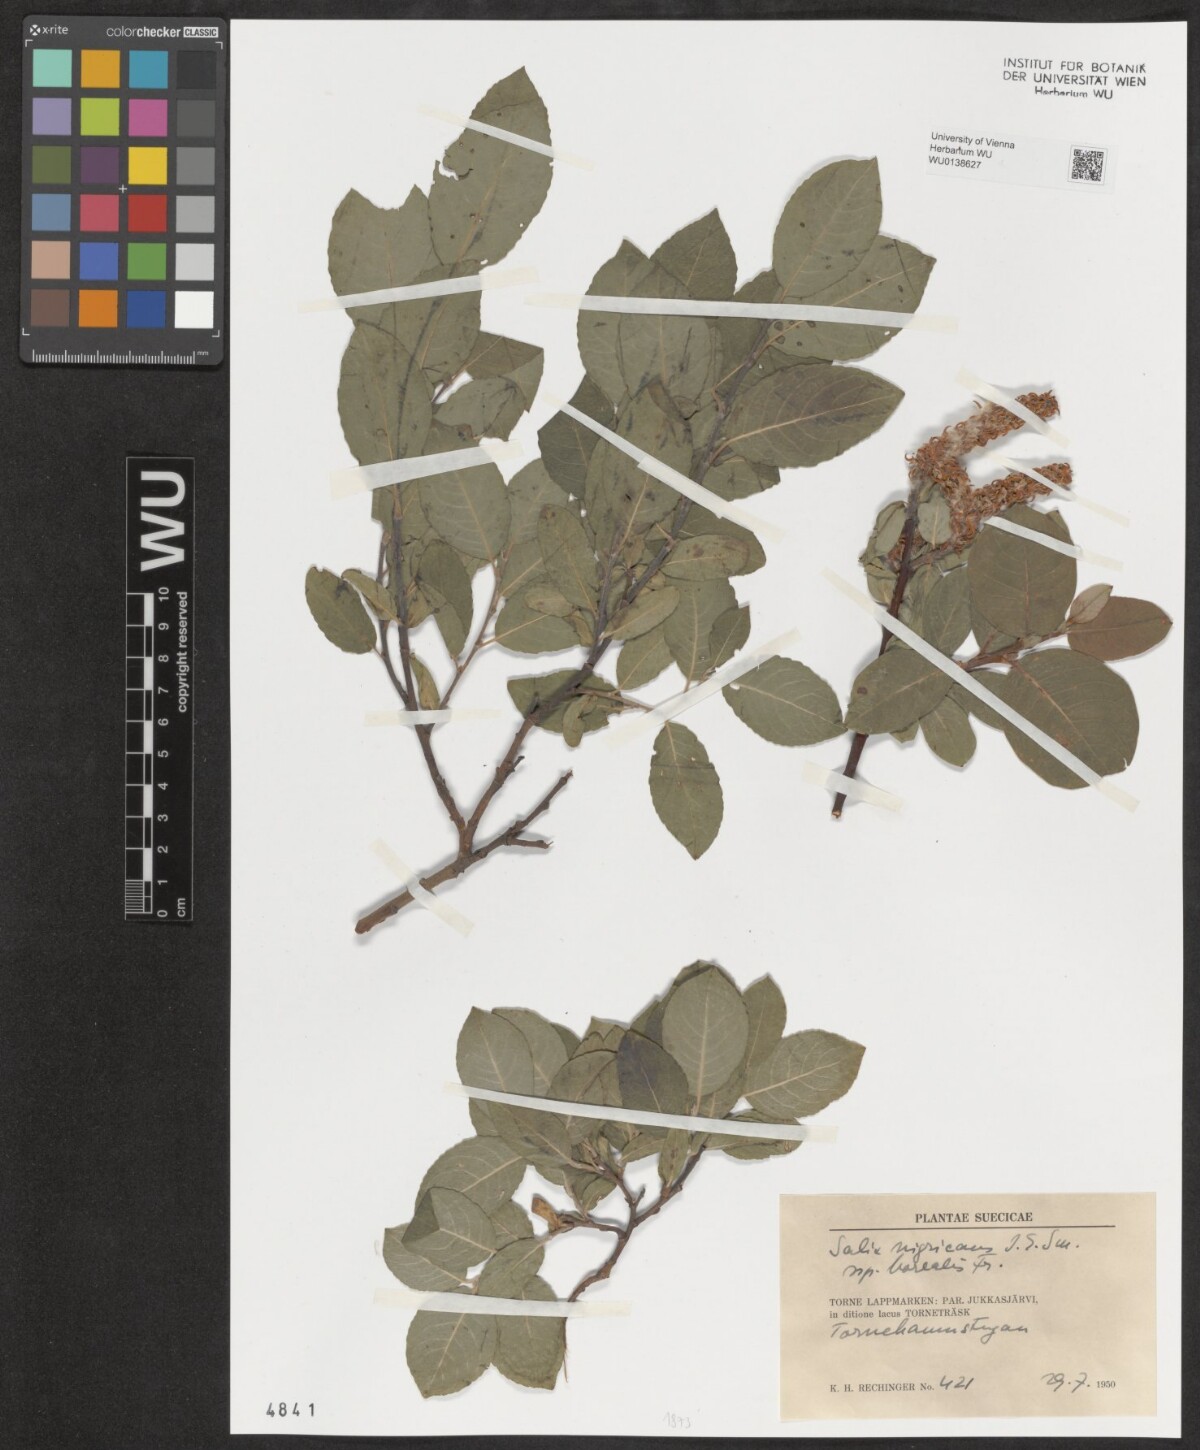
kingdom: Plantae
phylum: Tracheophyta
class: Magnoliopsida
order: Malpighiales
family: Salicaceae
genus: Salix
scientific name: Salix myrsinifolia
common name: Dark-leaved willow
